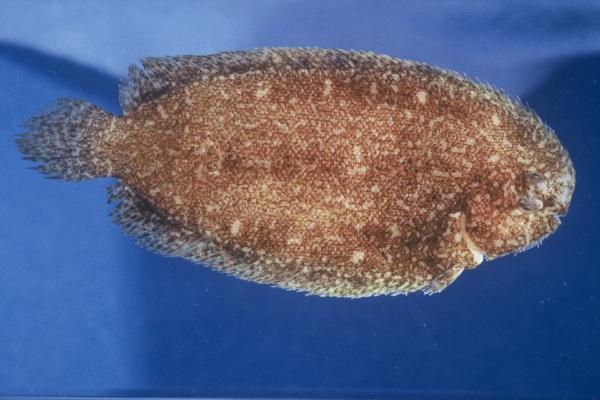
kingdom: Animalia
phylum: Chordata
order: Pleuronectiformes
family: Soleidae
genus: Aseraggodes
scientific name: Aseraggodes heemstrai
